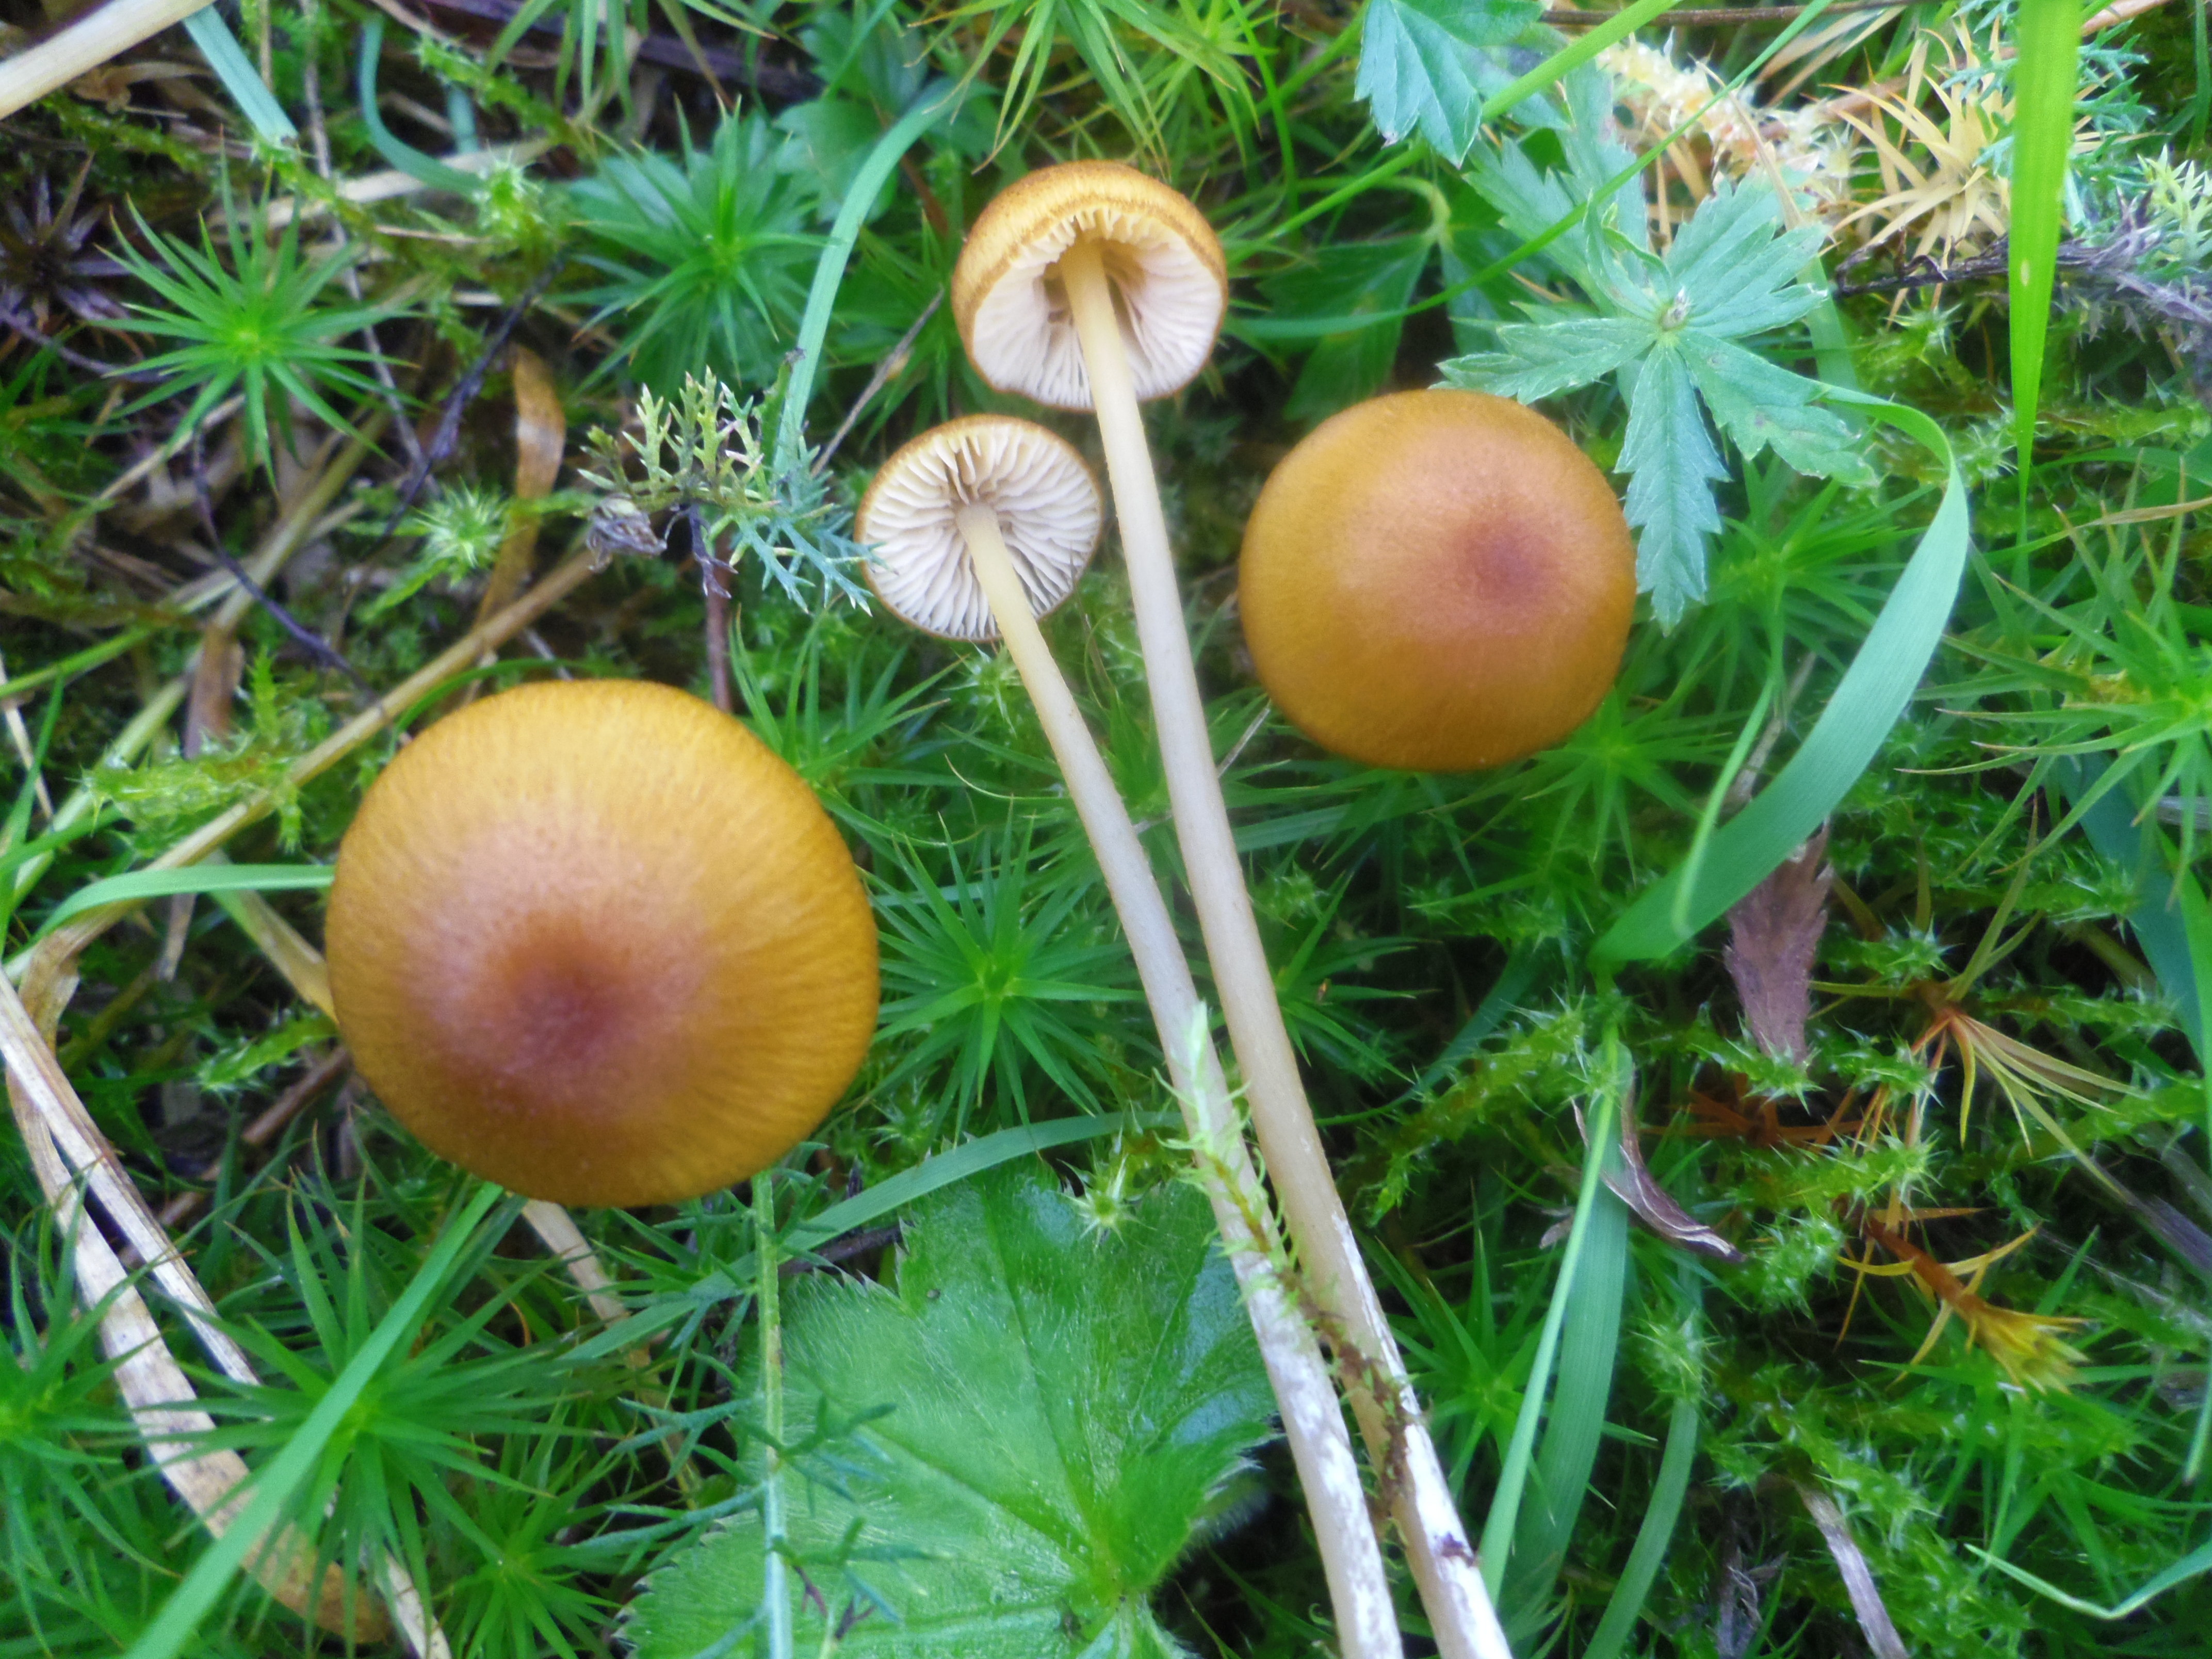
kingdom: Fungi
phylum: Basidiomycota
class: Agaricomycetes
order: Agaricales
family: Entolomataceae
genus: Entoloma
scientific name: Entoloma formosum
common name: Pretty pinkgill
